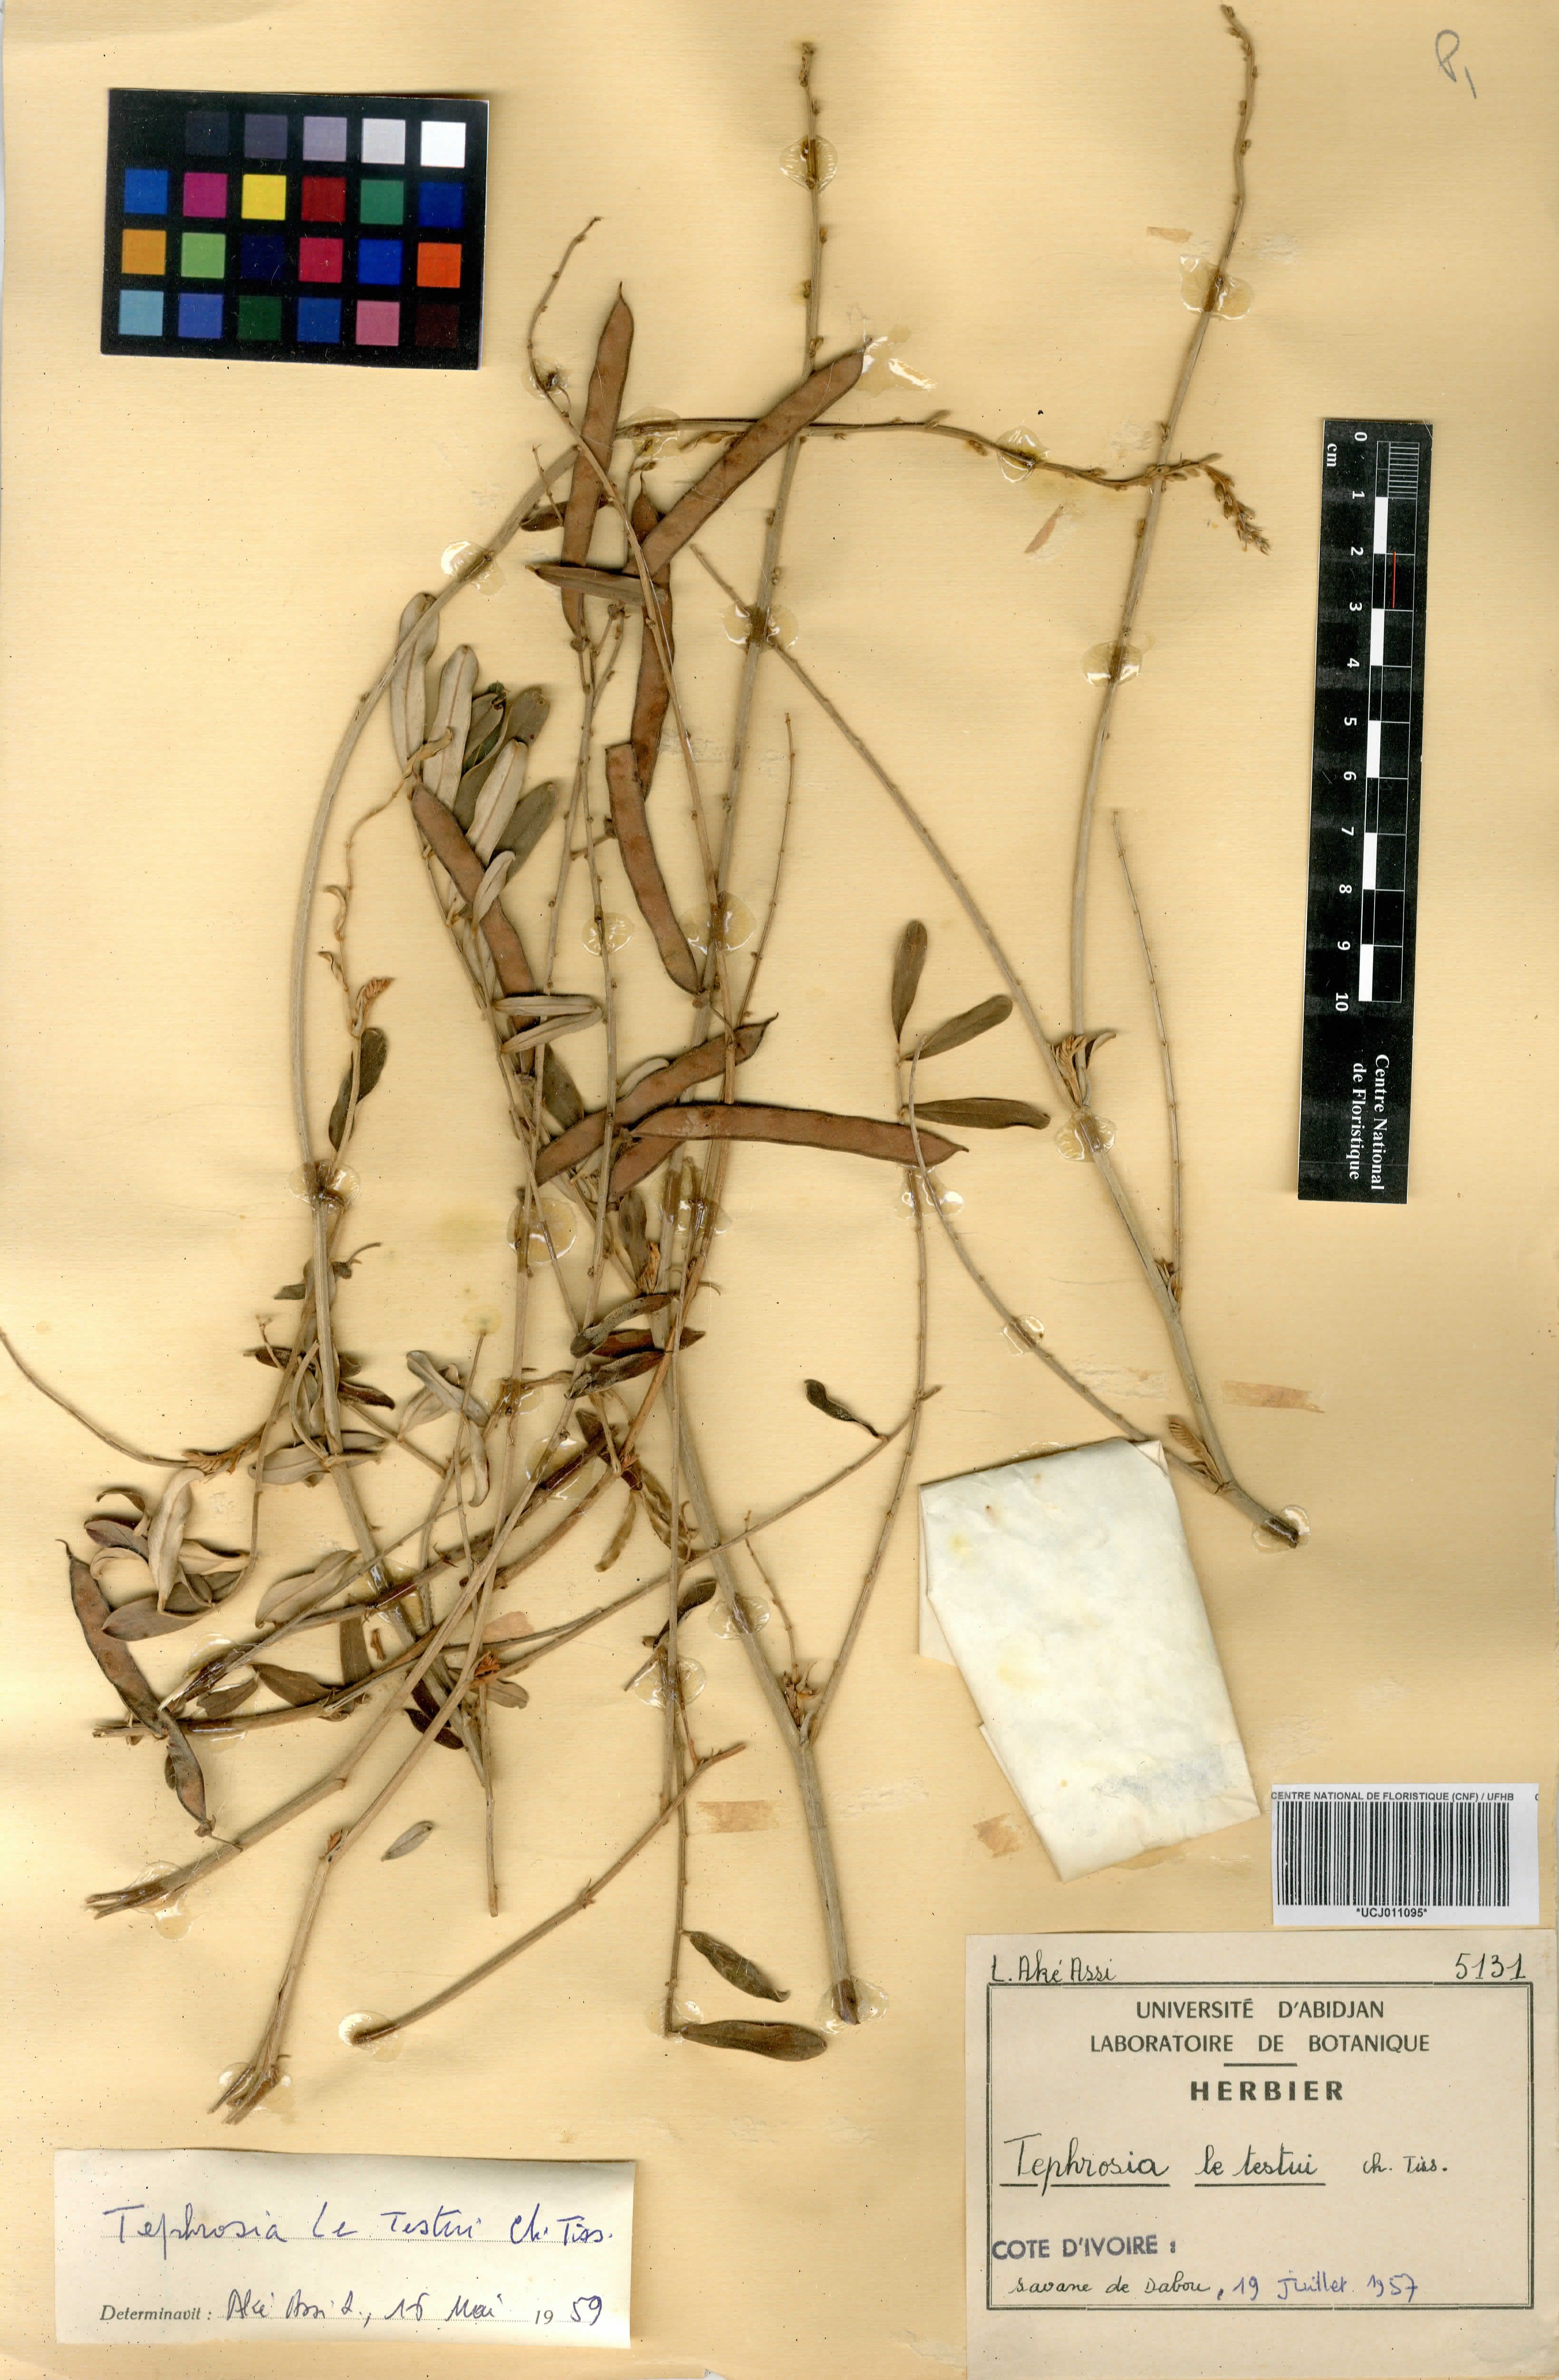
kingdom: Plantae
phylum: Tracheophyta
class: Magnoliopsida
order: Fabales
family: Fabaceae
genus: Tephrosia
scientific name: Tephrosia letestui
